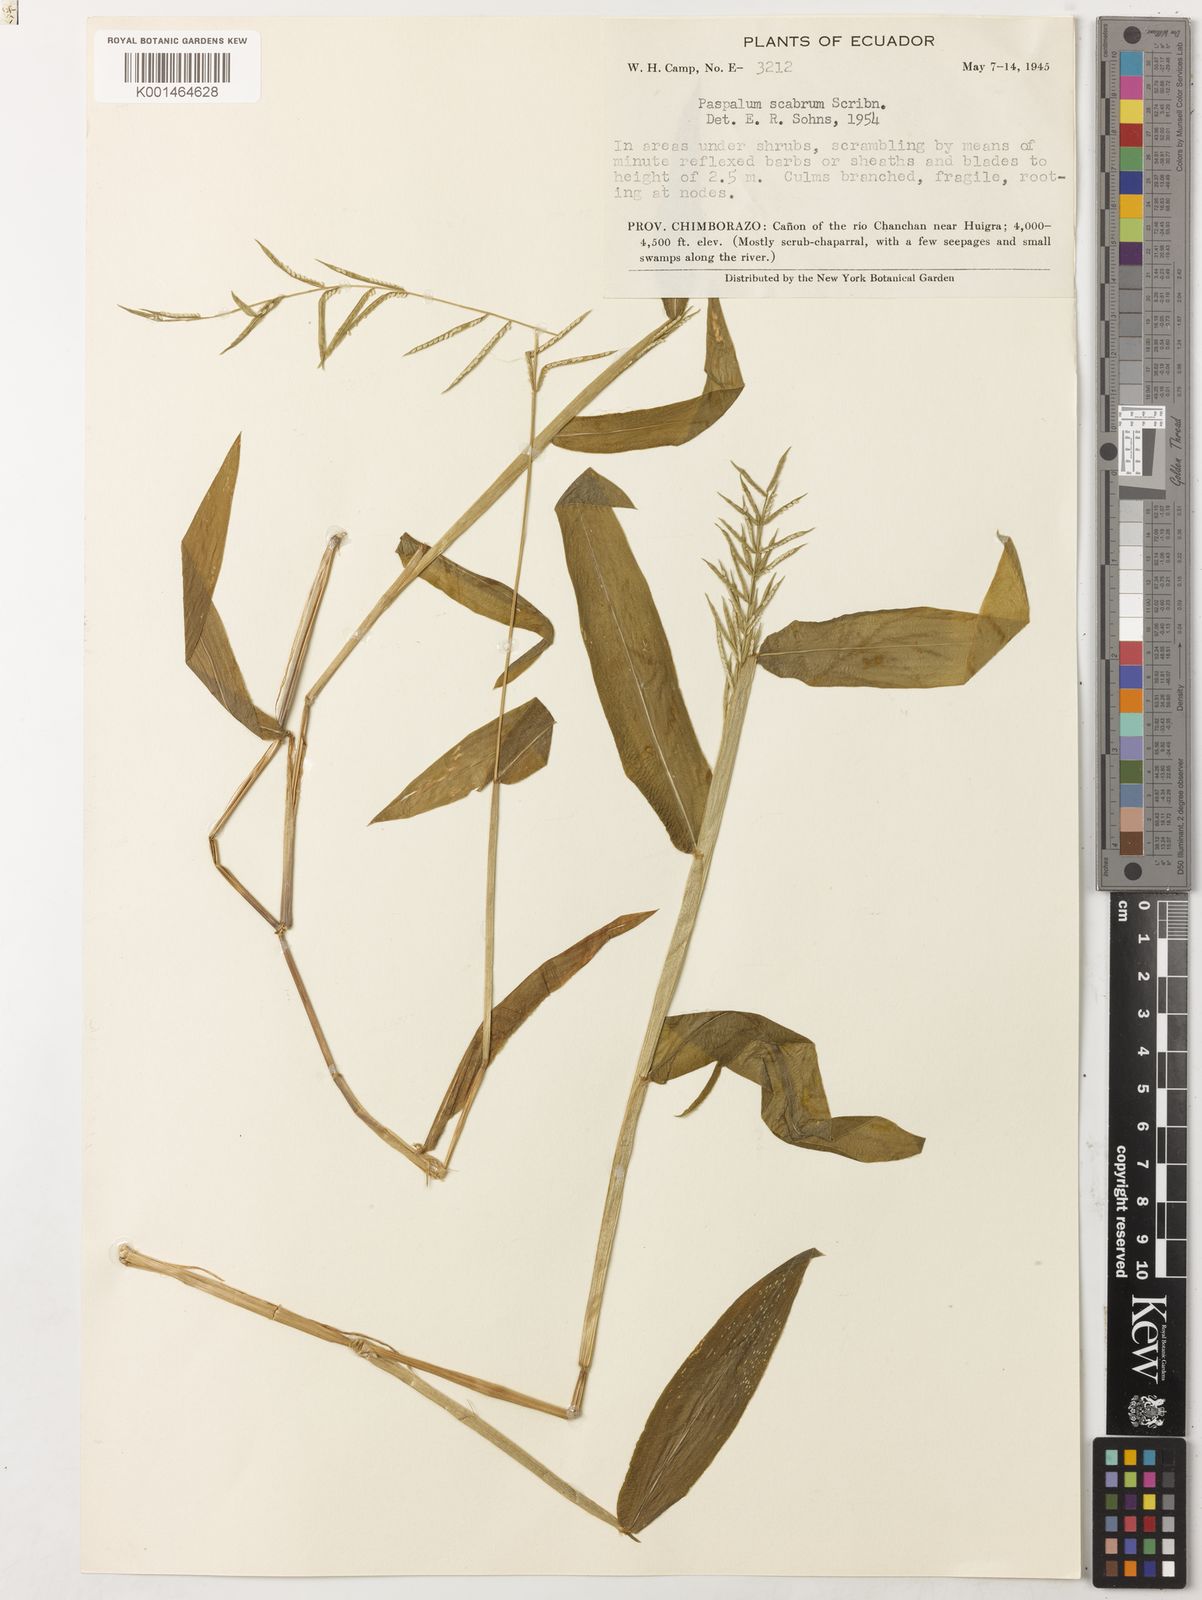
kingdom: Plantae
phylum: Tracheophyta
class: Liliopsida
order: Poales
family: Poaceae
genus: Paspalum
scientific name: Paspalum candidum
